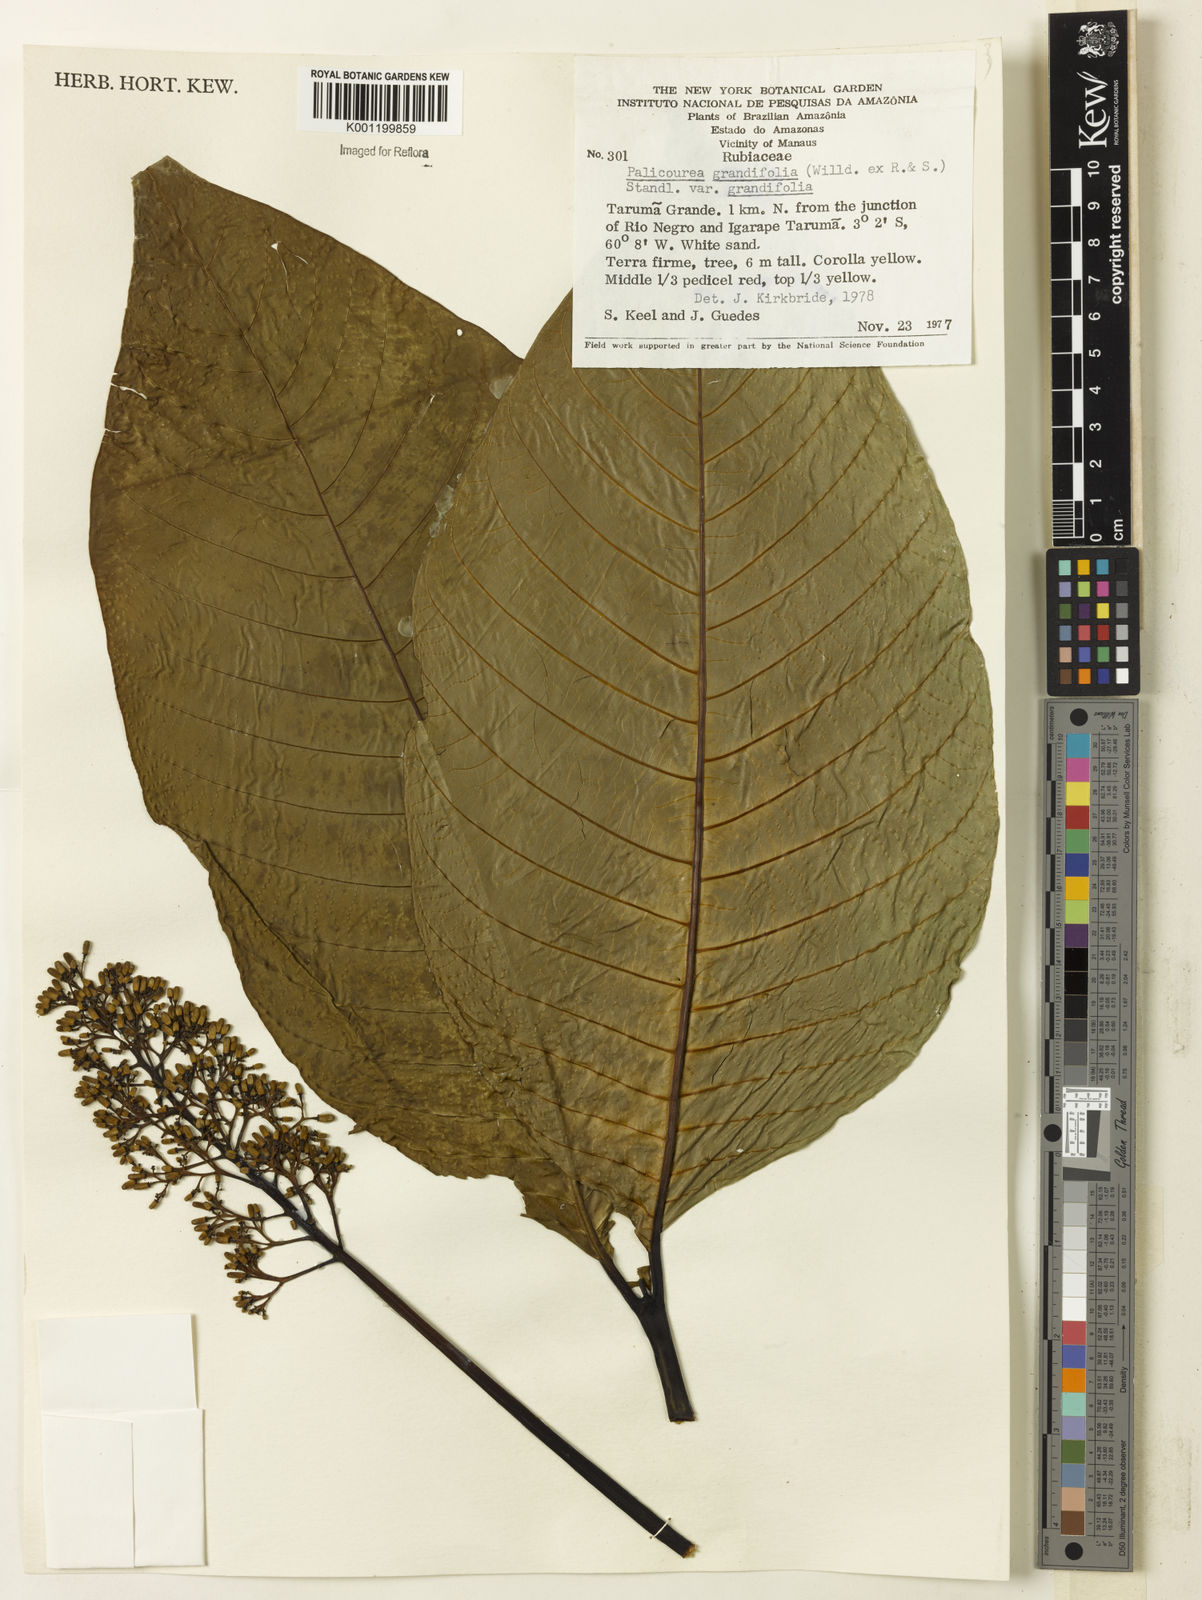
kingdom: Plantae
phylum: Tracheophyta
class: Magnoliopsida
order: Gentianales
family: Rubiaceae
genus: Palicourea
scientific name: Palicourea grandifolia
